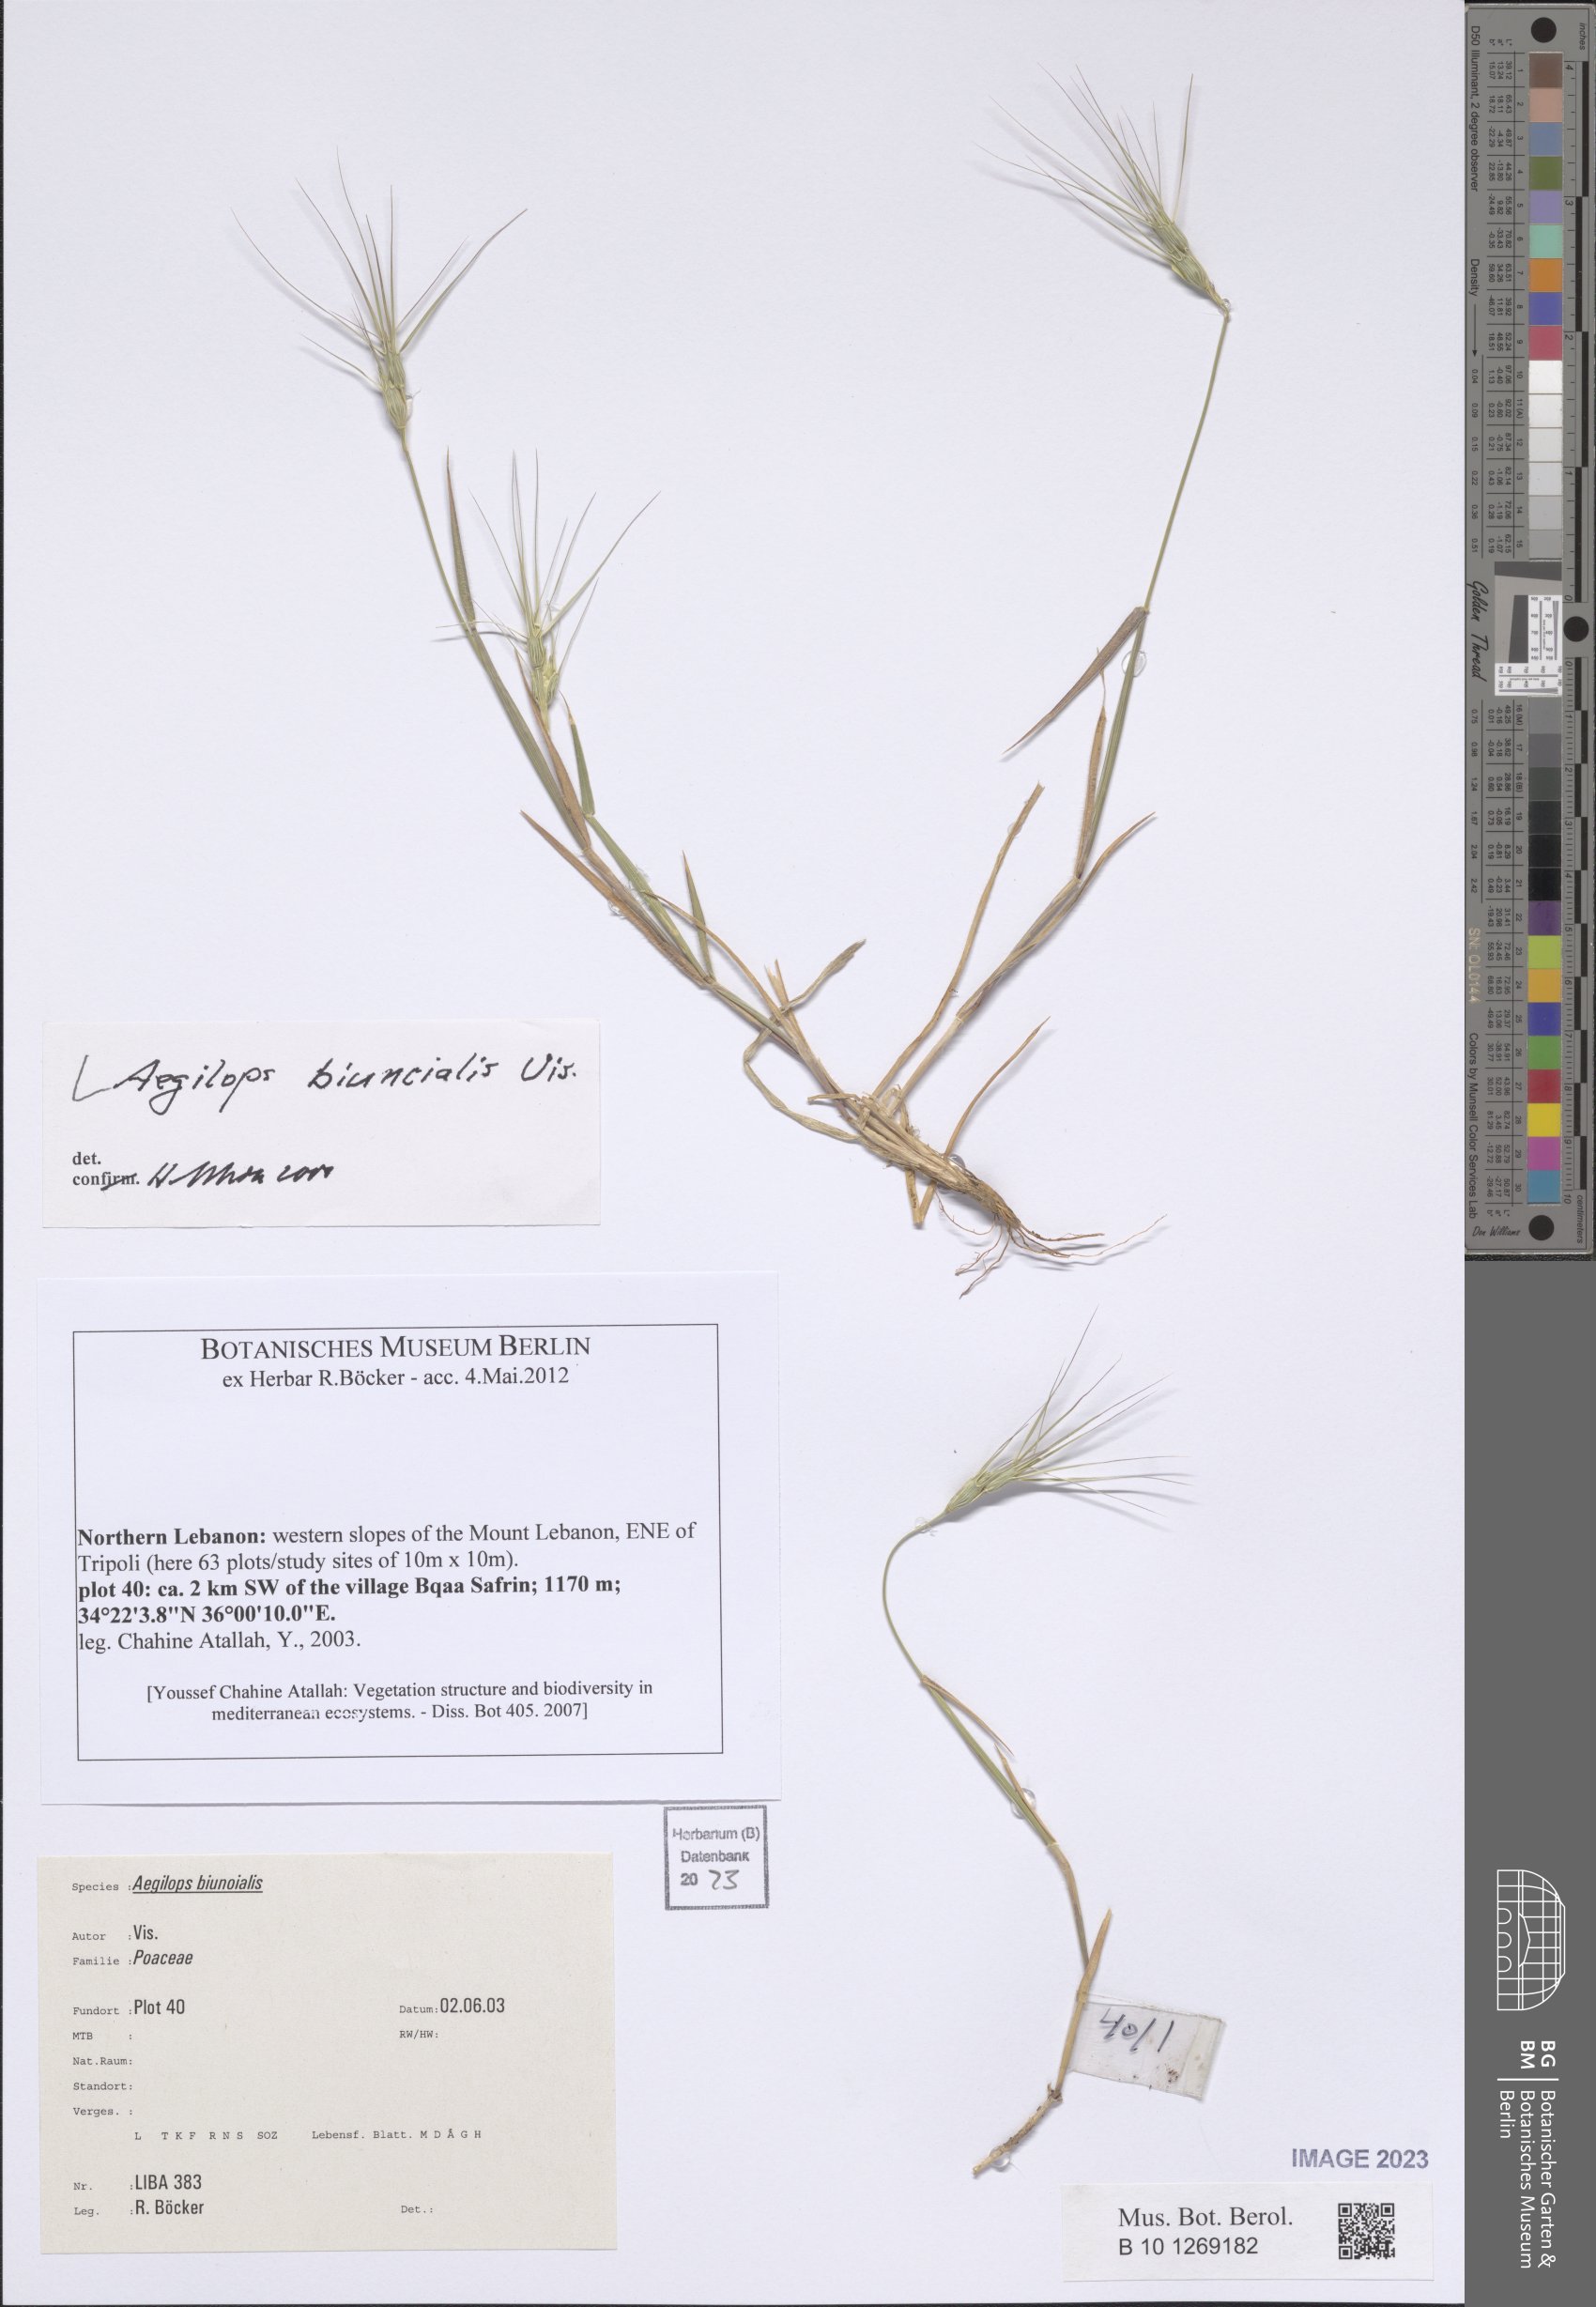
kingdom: Plantae
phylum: Tracheophyta
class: Liliopsida
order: Poales
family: Poaceae
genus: Aegilops
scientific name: Aegilops biuncialis
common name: Mediterranean aegilops
